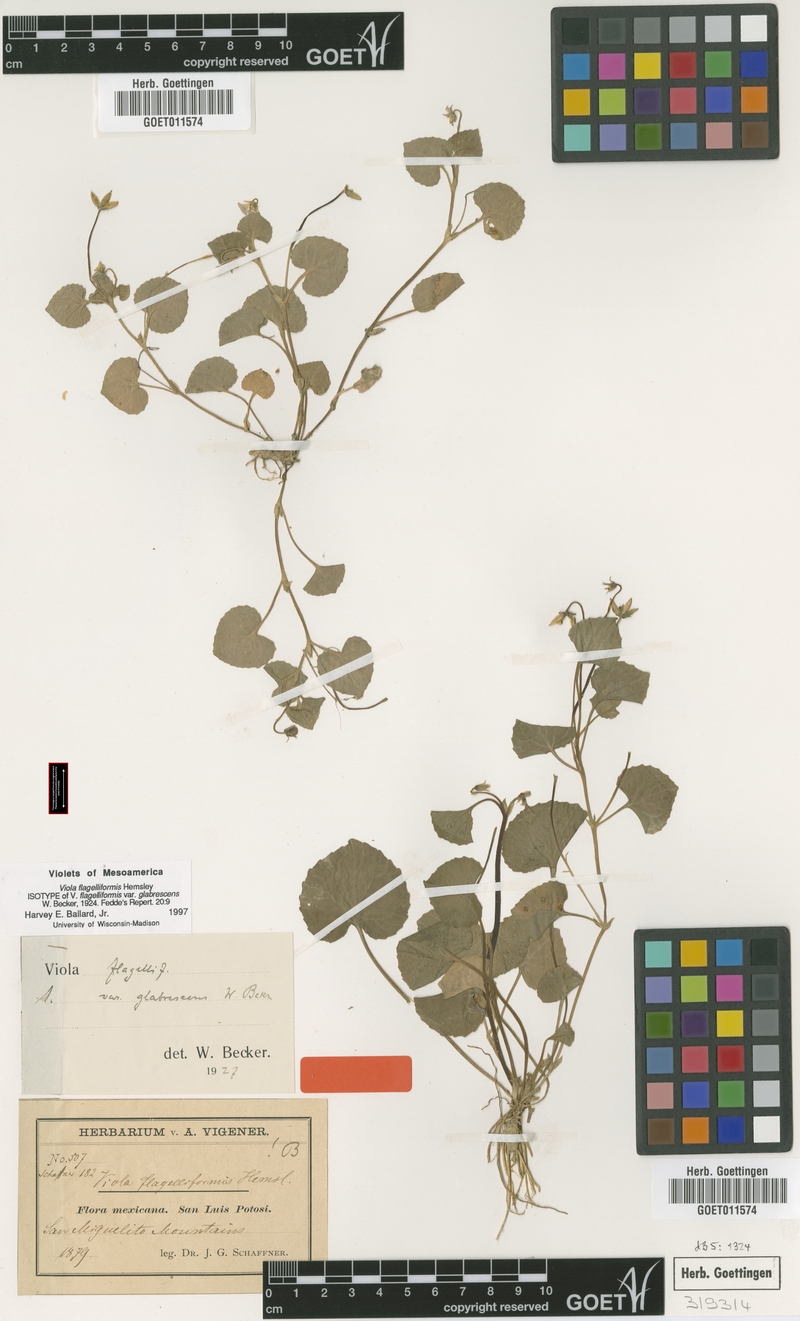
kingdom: Plantae
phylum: Tracheophyta
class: Magnoliopsida
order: Malpighiales
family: Violaceae
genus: Viola
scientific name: Viola flagelliformis
